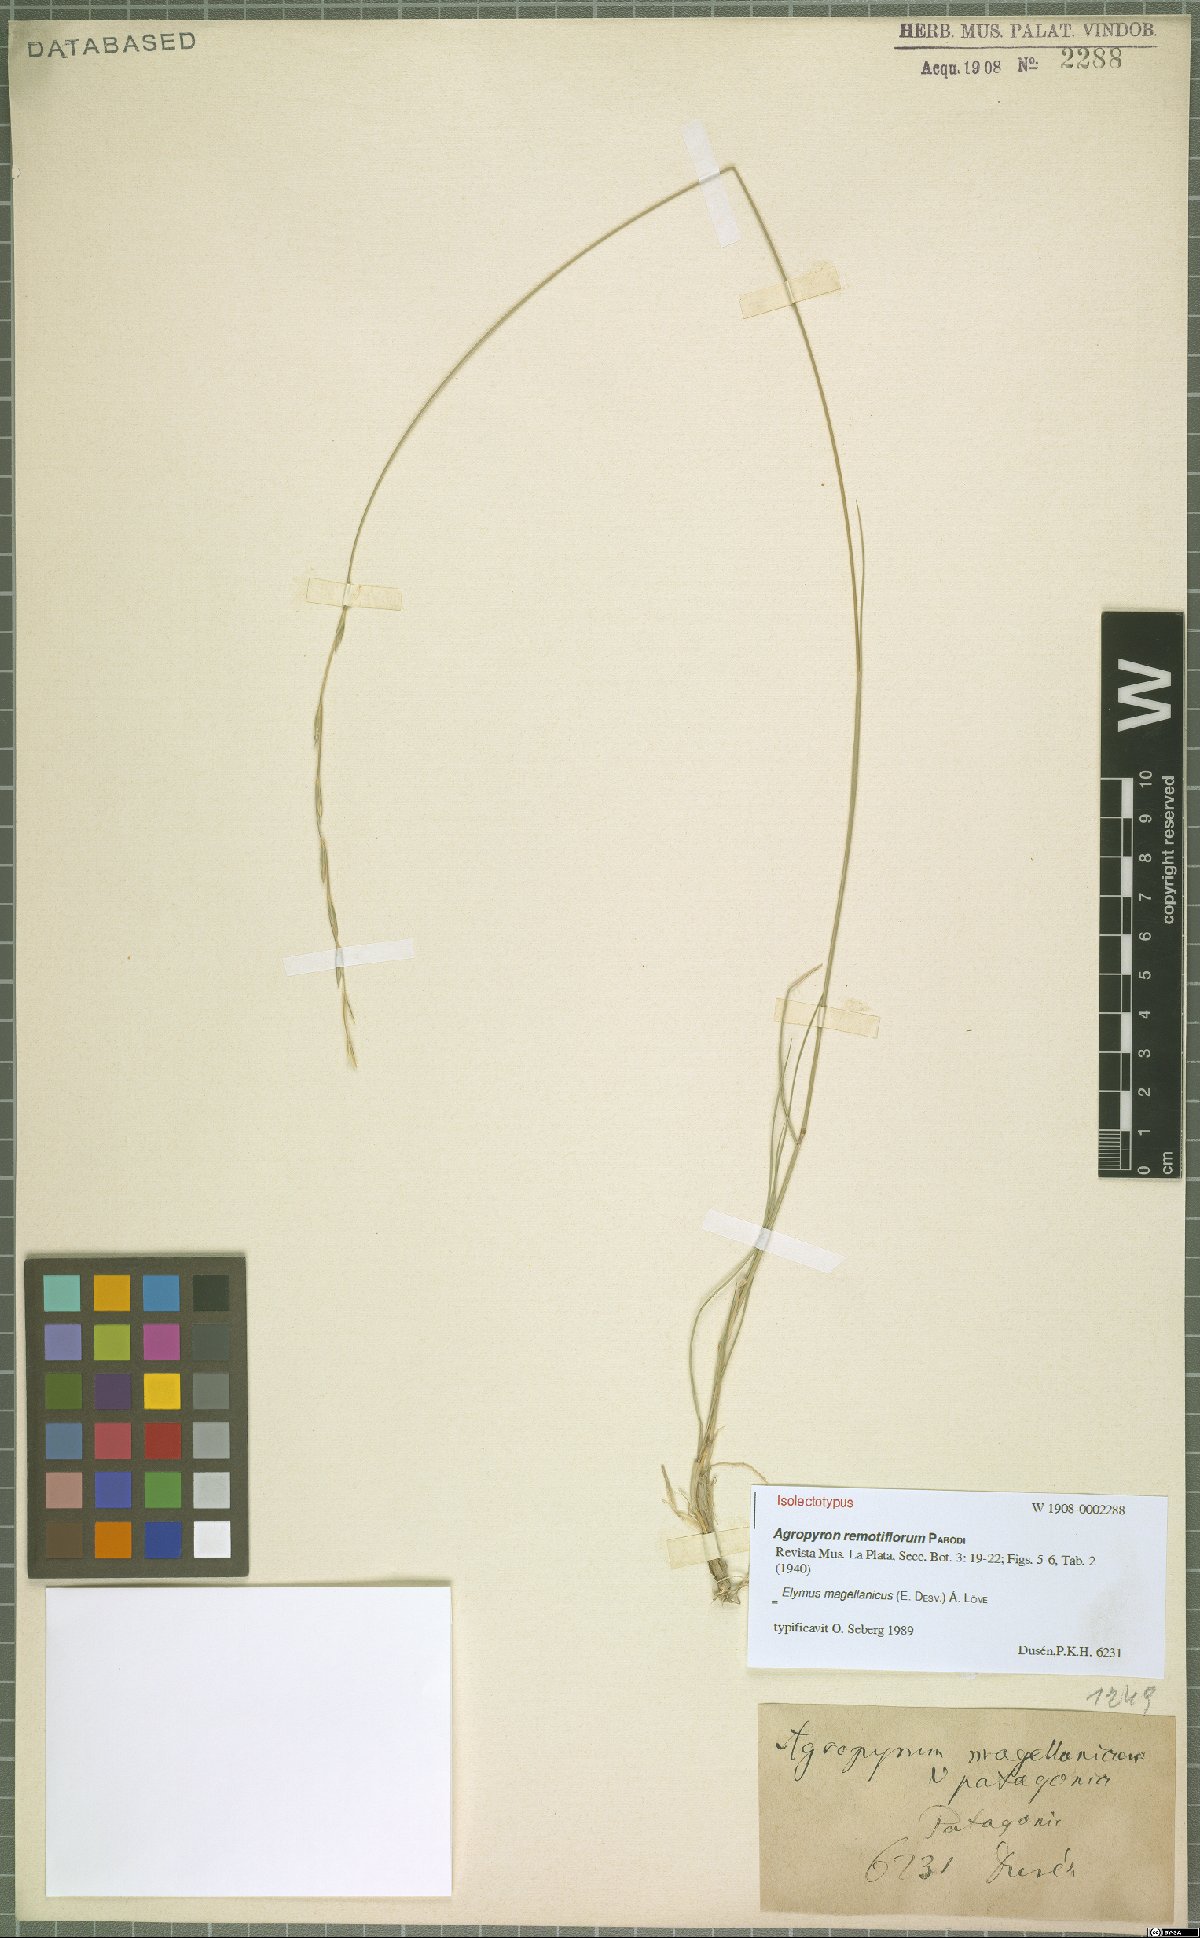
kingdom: Plantae
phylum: Tracheophyta
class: Liliopsida
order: Poales
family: Poaceae
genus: Elymus
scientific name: Elymus magellanicus
